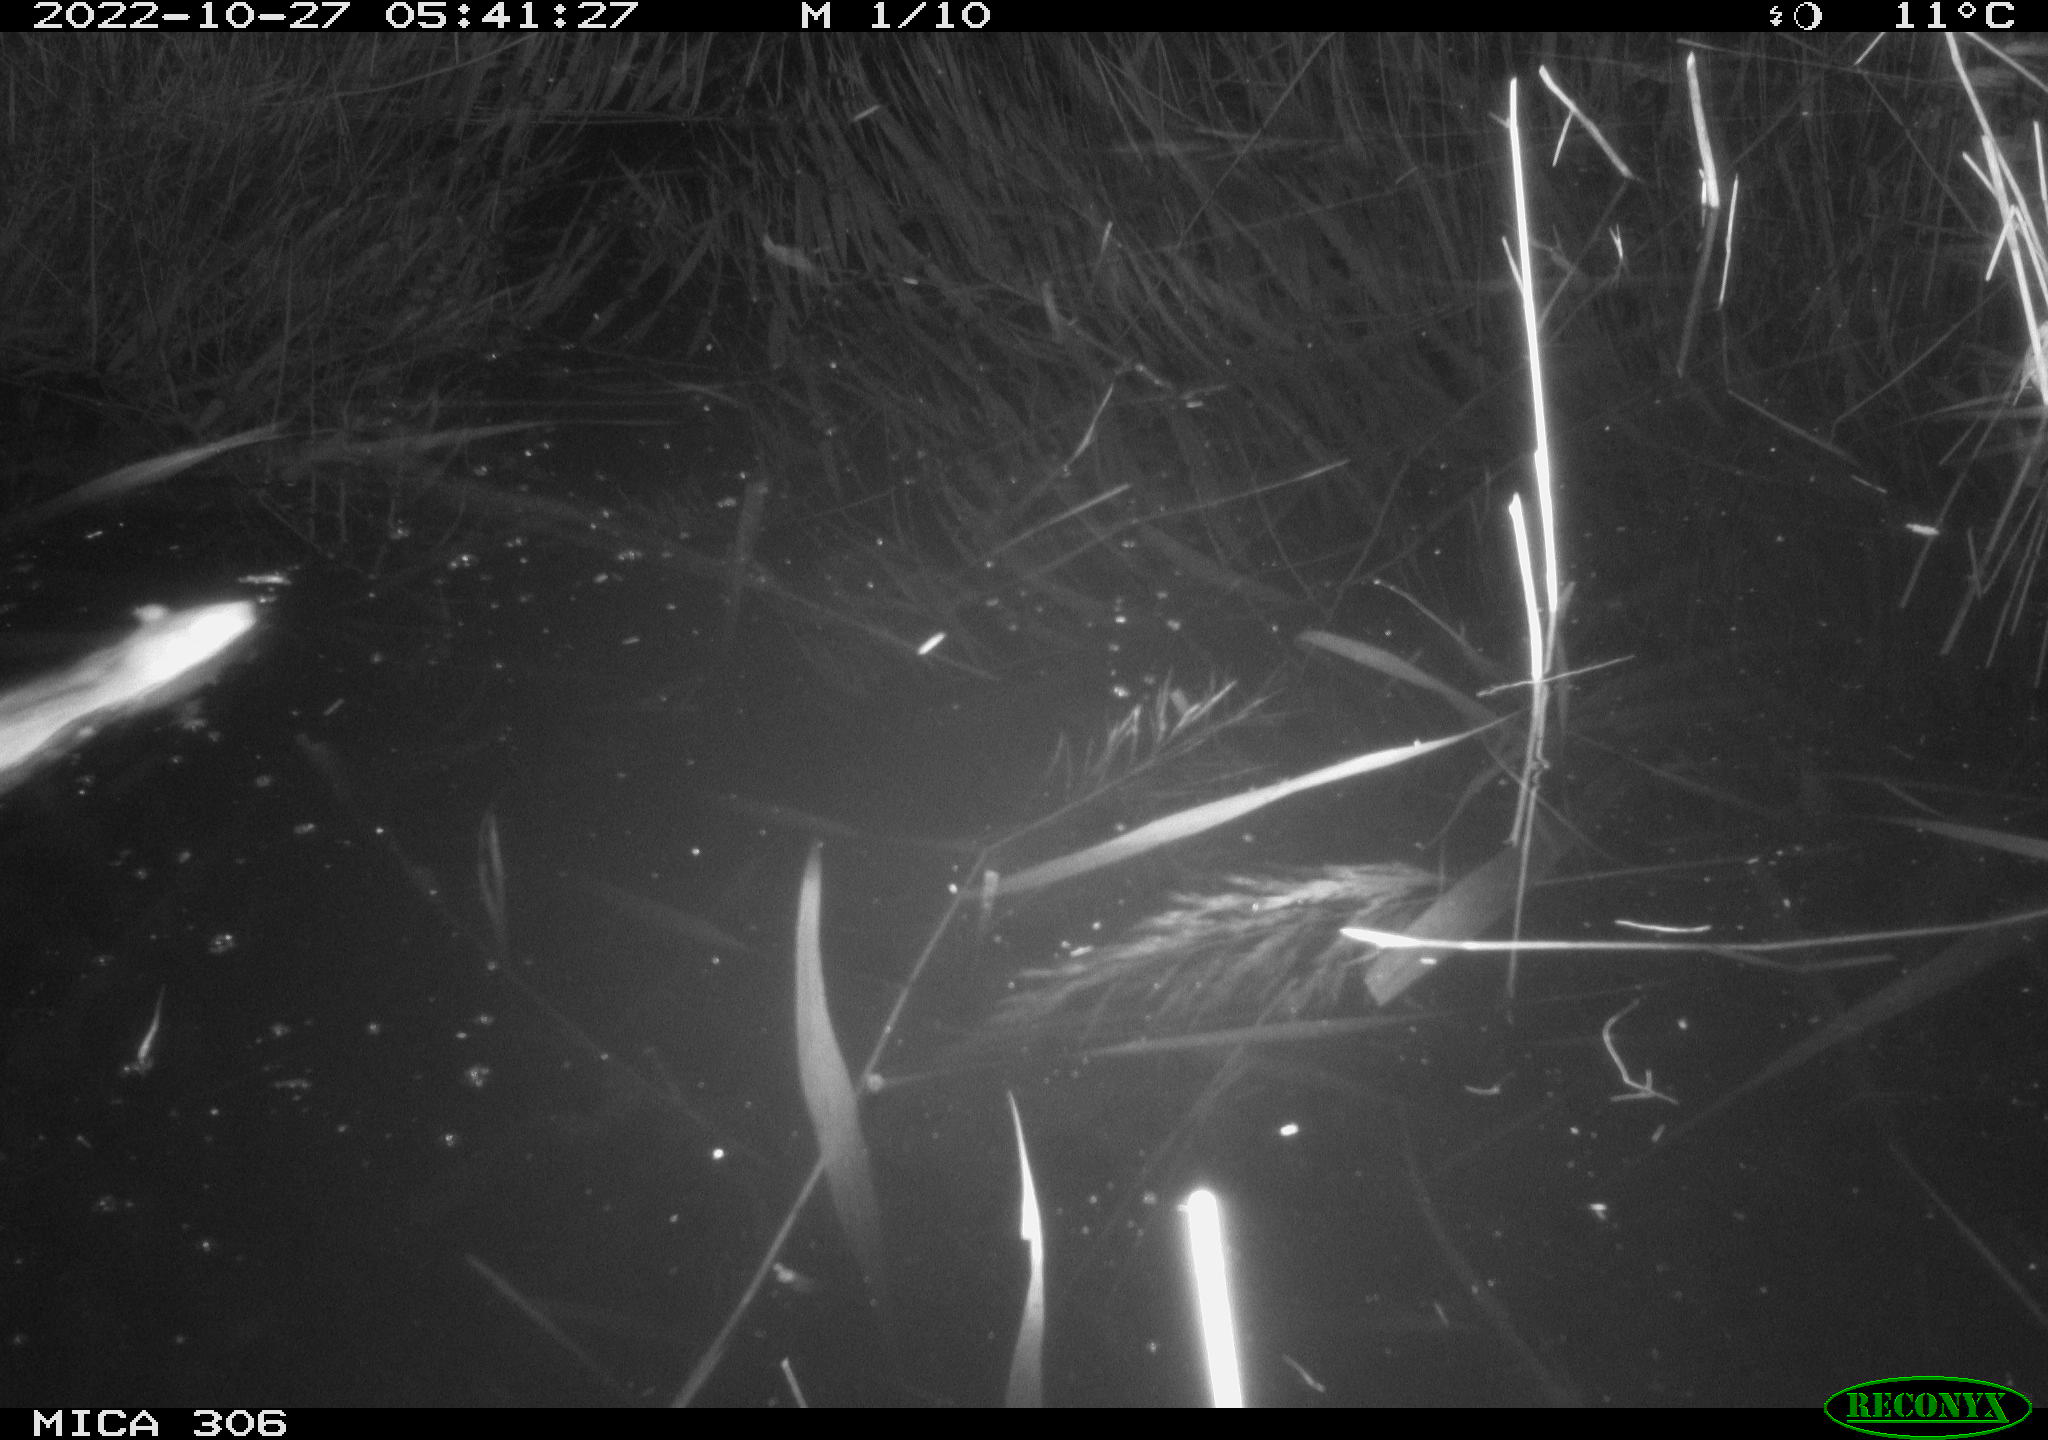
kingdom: Animalia
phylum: Chordata
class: Mammalia
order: Rodentia
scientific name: Rodentia
